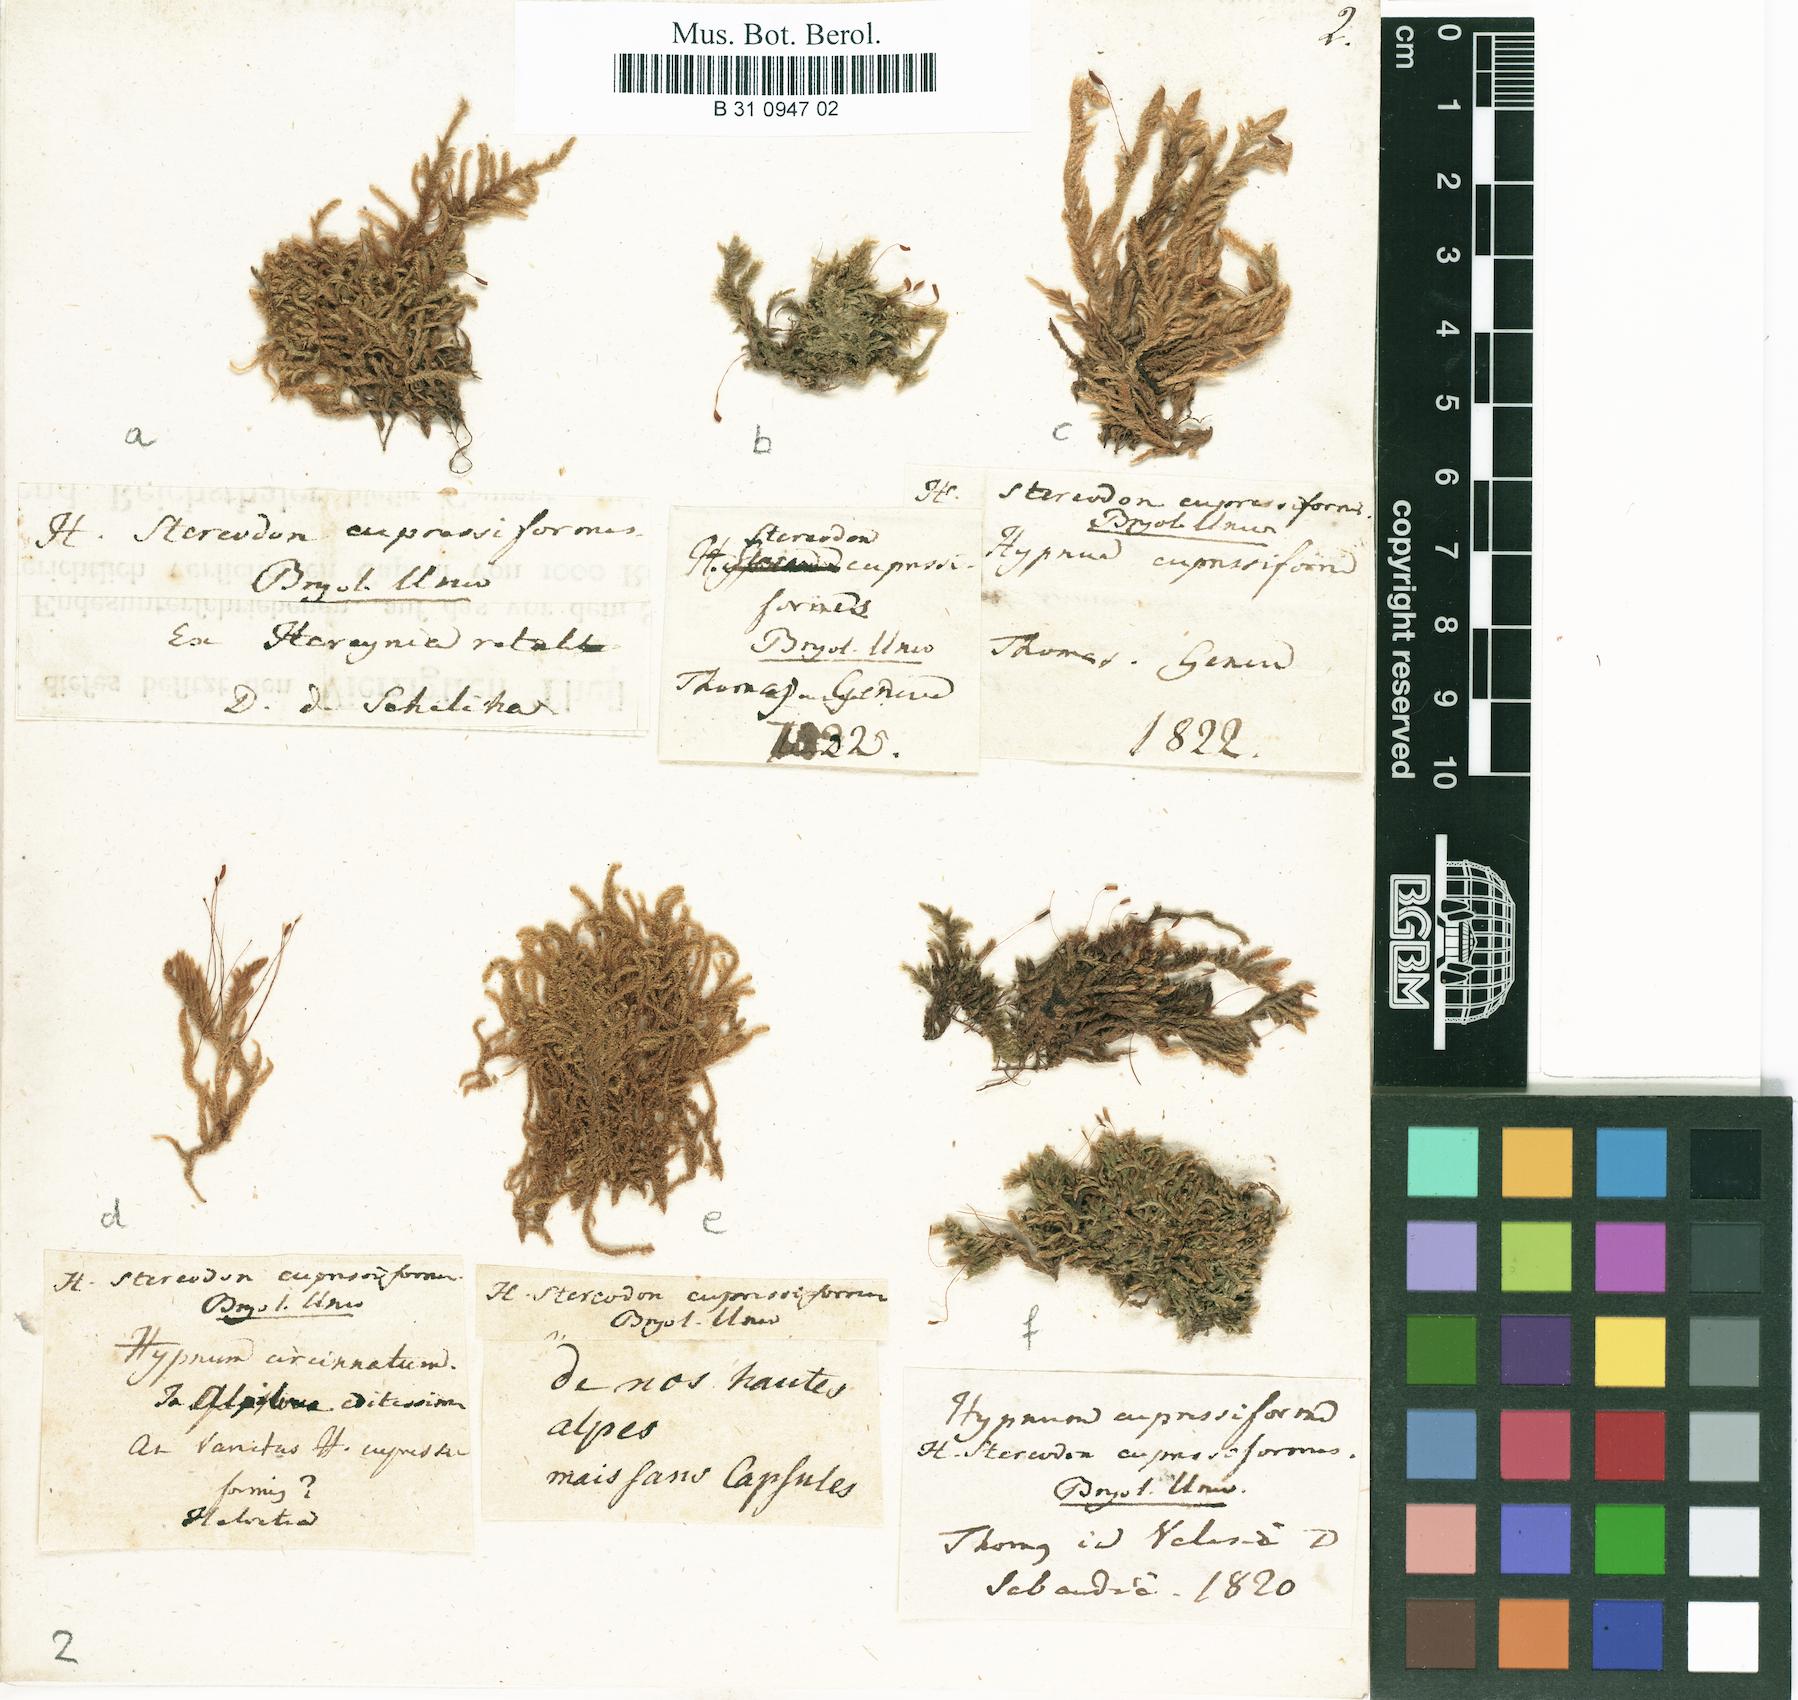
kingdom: Plantae
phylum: Bryophyta
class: Bryopsida
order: Hypnales
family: Hypnaceae
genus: Hypnum
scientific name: Hypnum cupressiforme
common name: Cypress-leaved plait-moss
